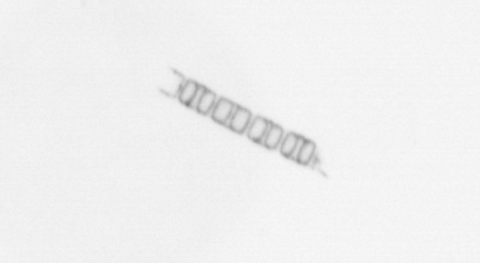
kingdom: Chromista
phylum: Ochrophyta
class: Bacillariophyceae
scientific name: Bacillariophyceae
